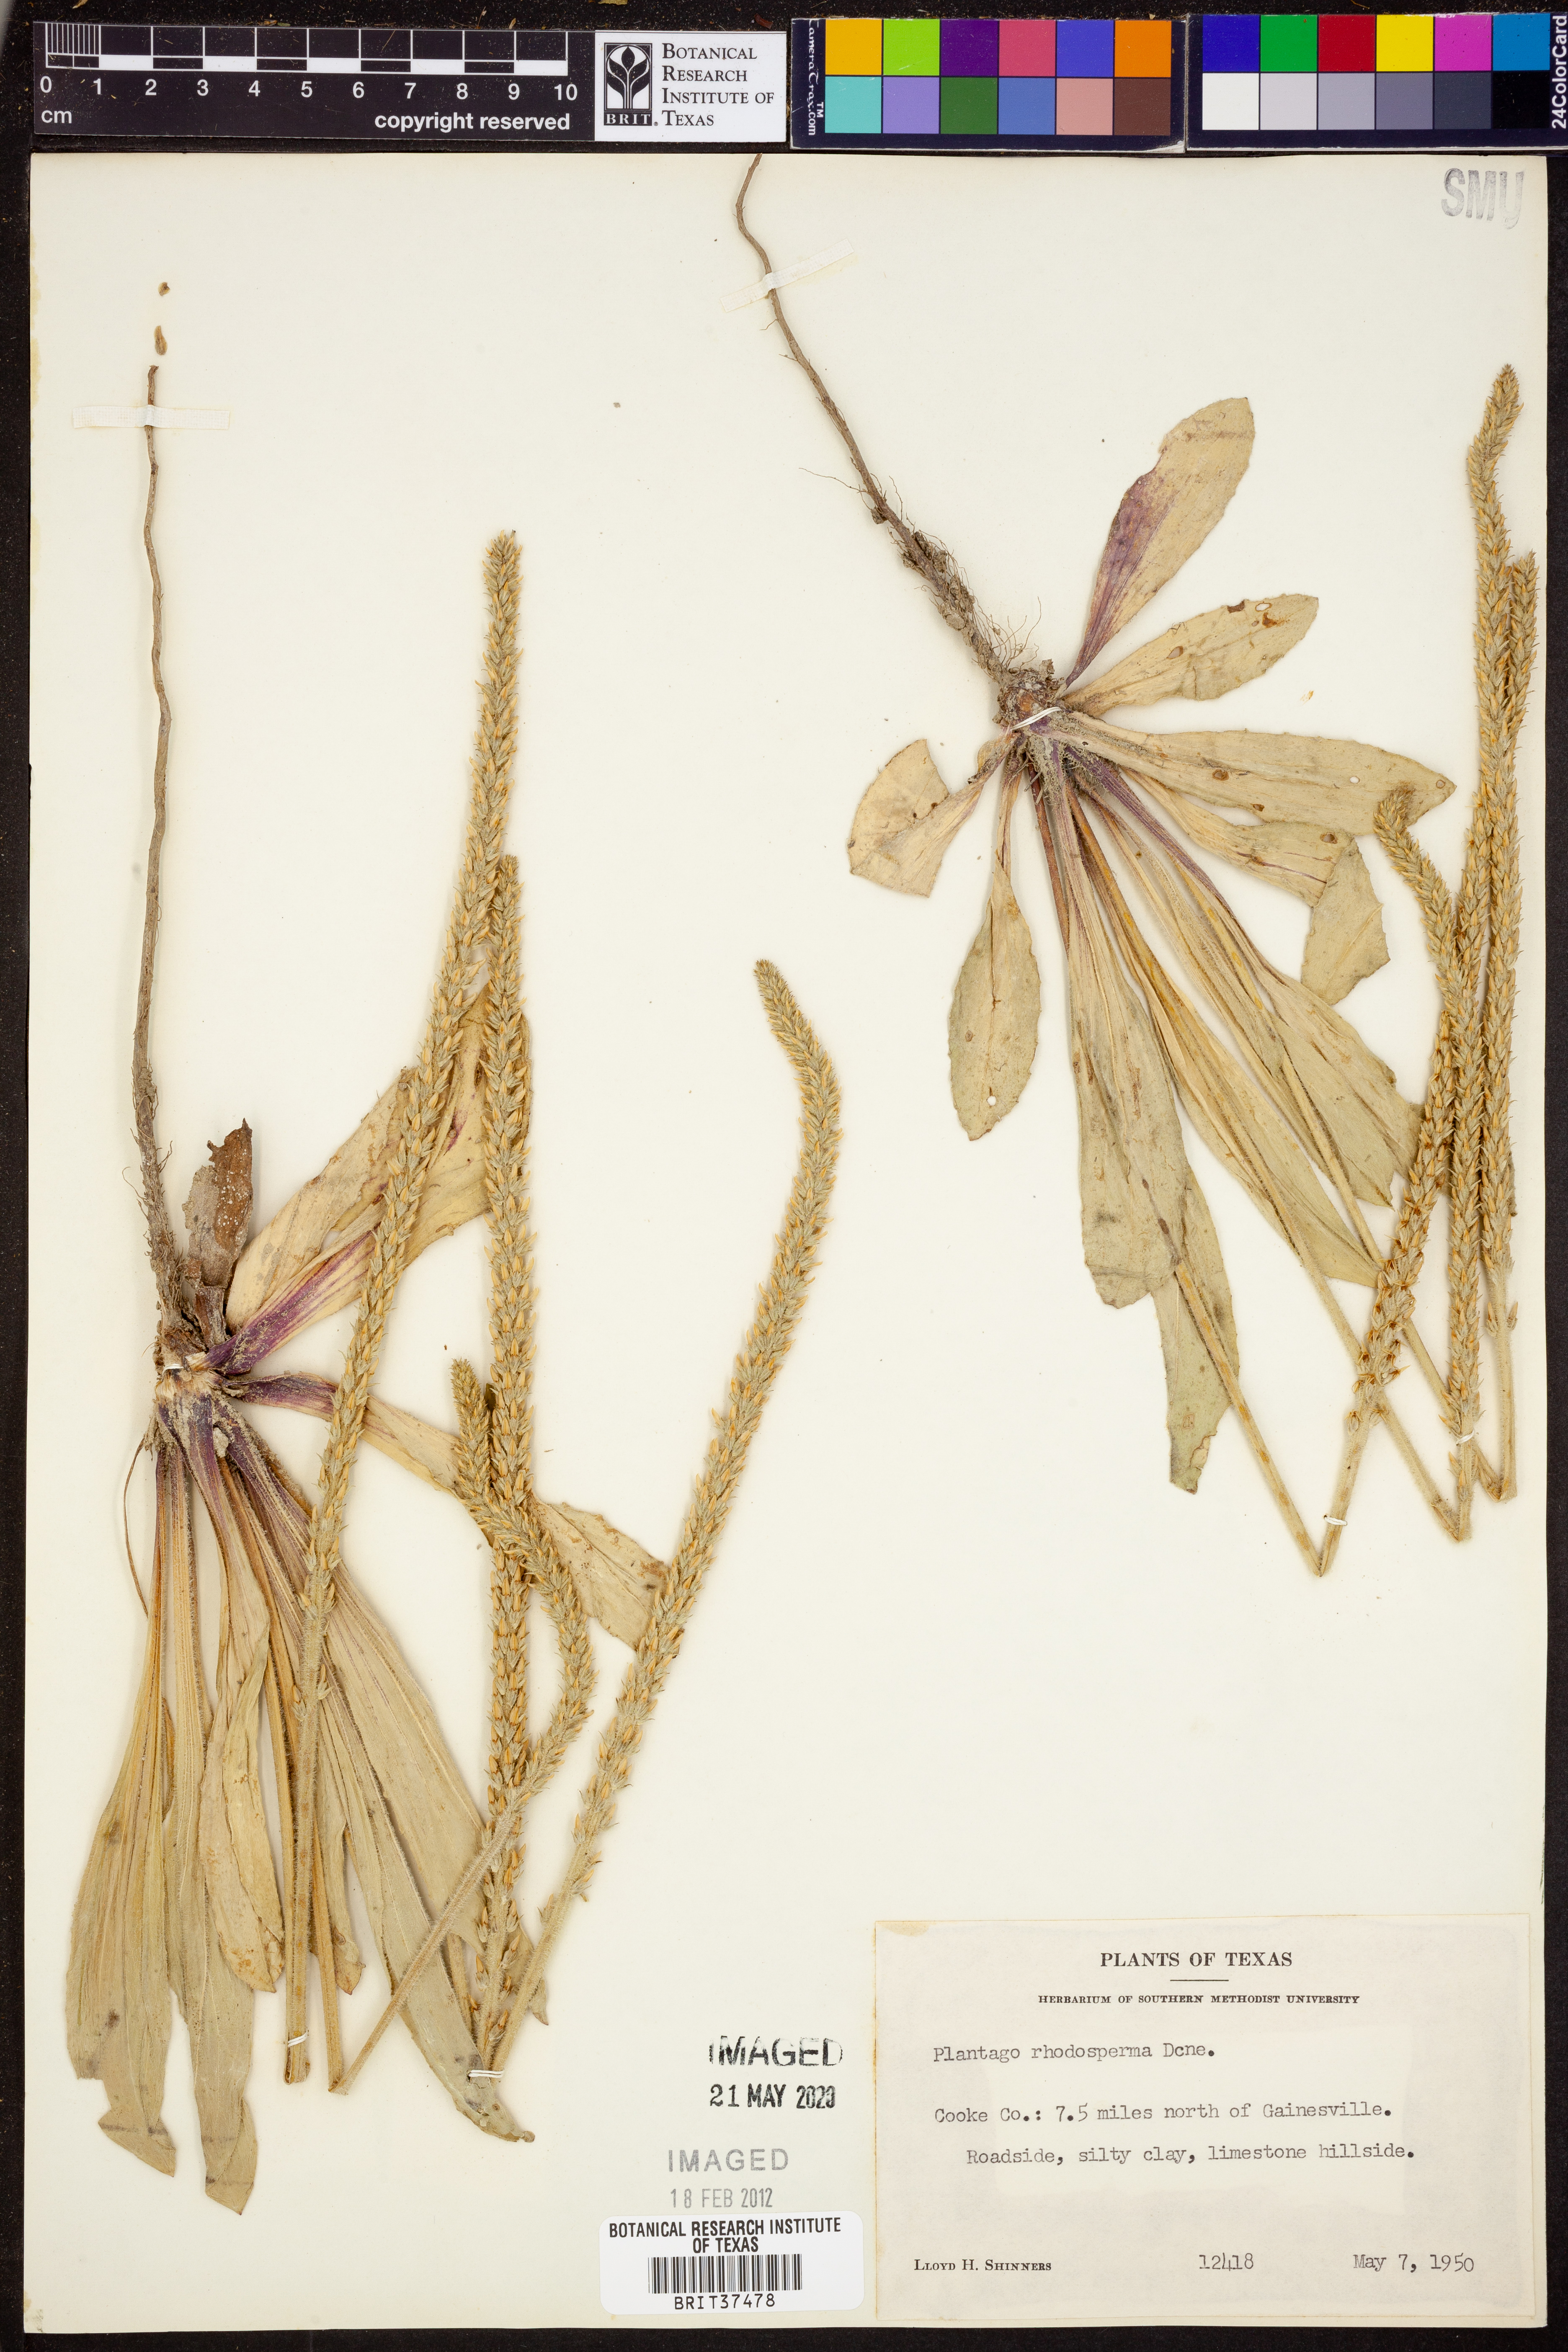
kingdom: Plantae
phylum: Tracheophyta
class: Magnoliopsida
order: Lamiales
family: Plantaginaceae
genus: Plantago
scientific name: Plantago rhodosperma
